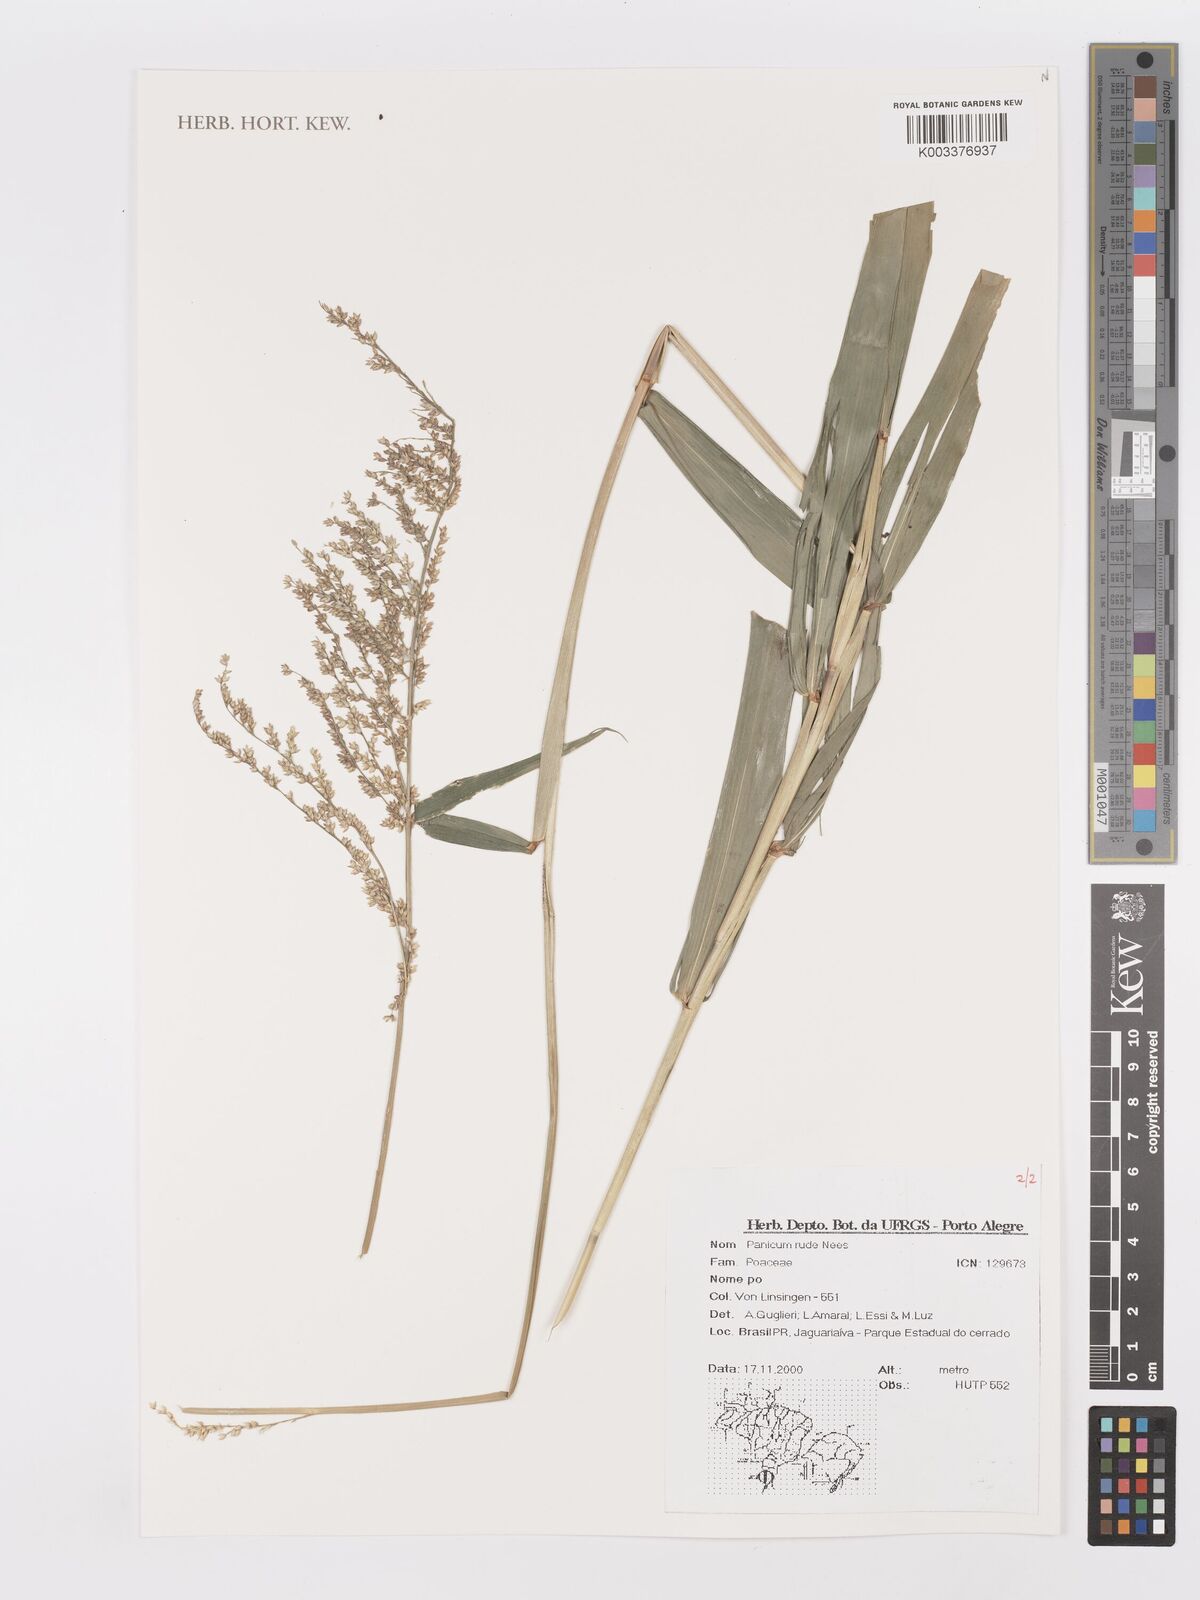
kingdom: Plantae
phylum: Tracheophyta
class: Liliopsida
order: Poales
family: Poaceae
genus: Setaria
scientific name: Setaria verticillata
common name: Hooked bristlegrass
